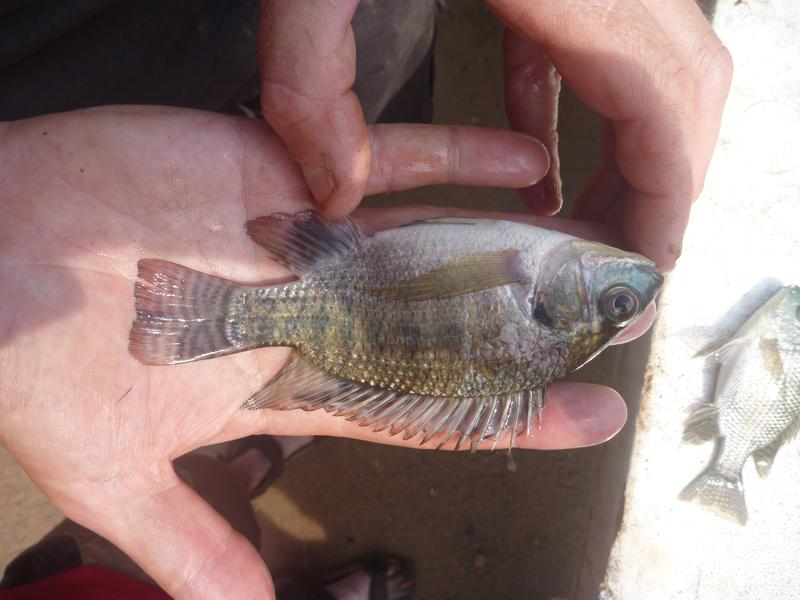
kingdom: Animalia
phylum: Chordata
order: Perciformes
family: Cichlidae
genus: Oreochromis
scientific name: Oreochromis niloticus
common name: Nile tilapia
